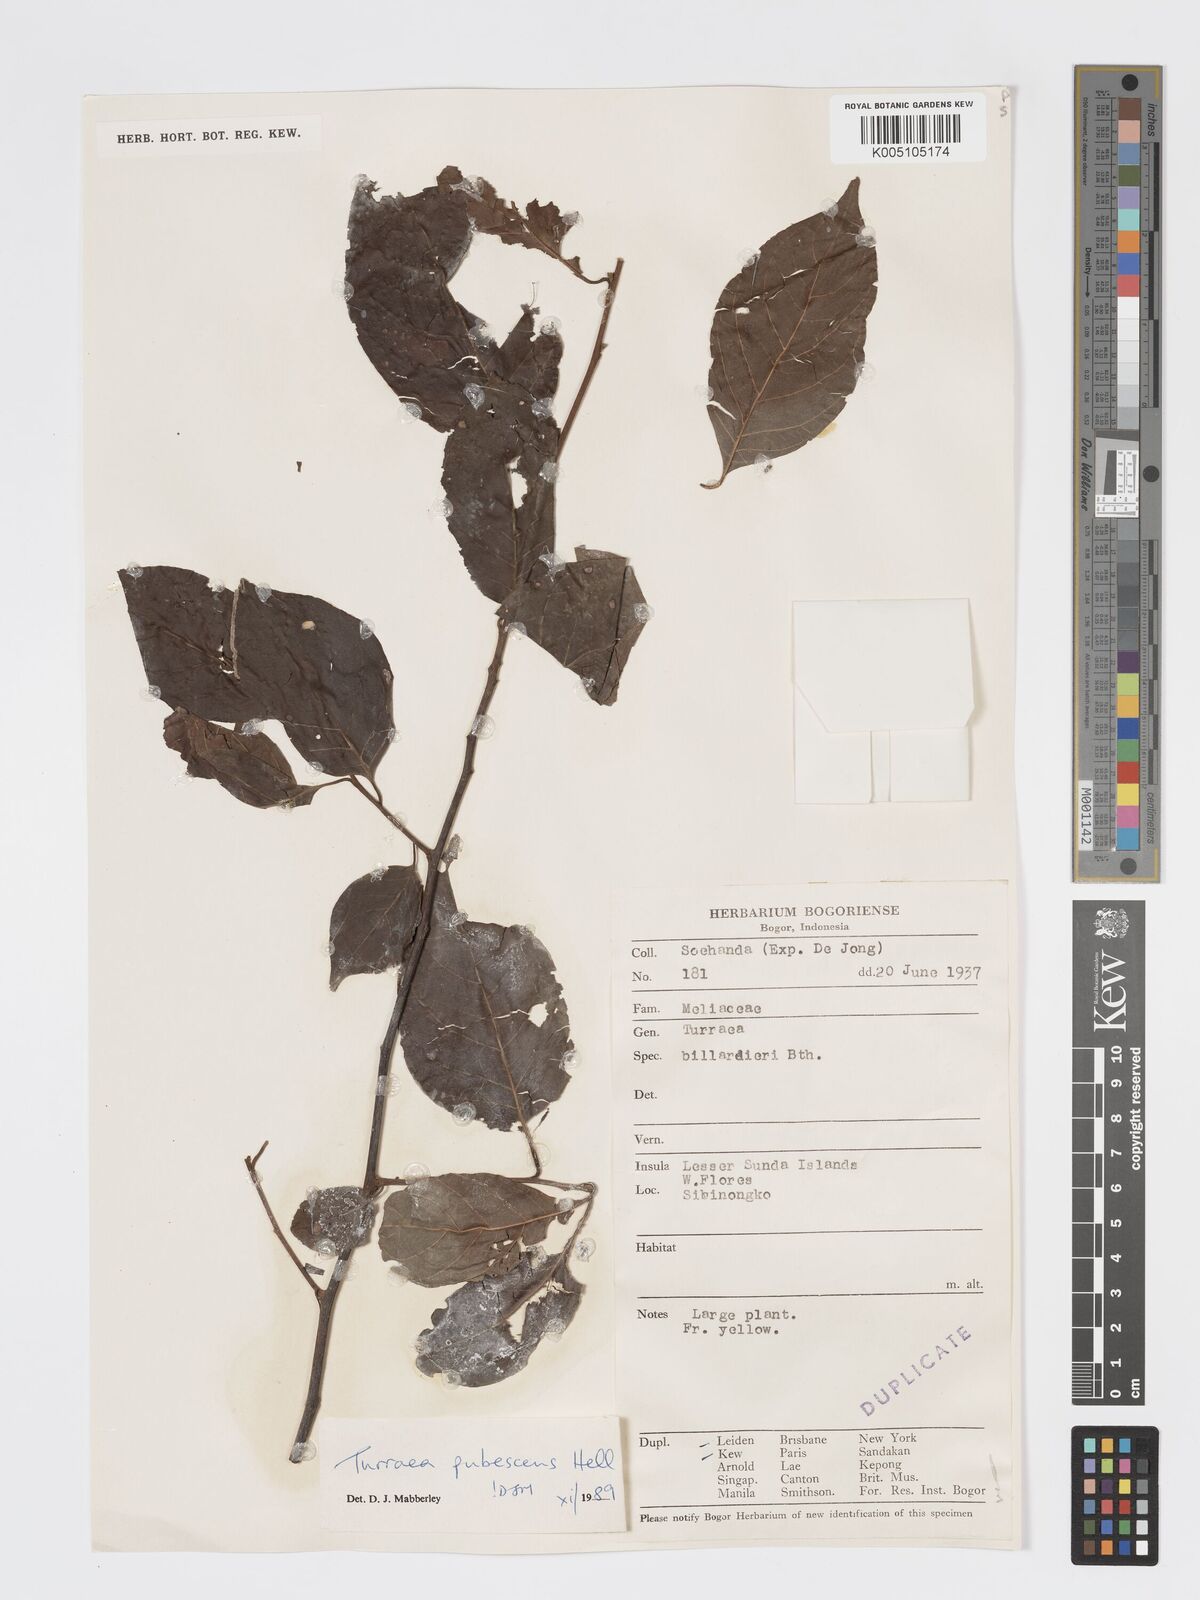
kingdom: Plantae
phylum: Tracheophyta
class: Magnoliopsida
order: Sapindales
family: Meliaceae
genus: Turraea
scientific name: Turraea
